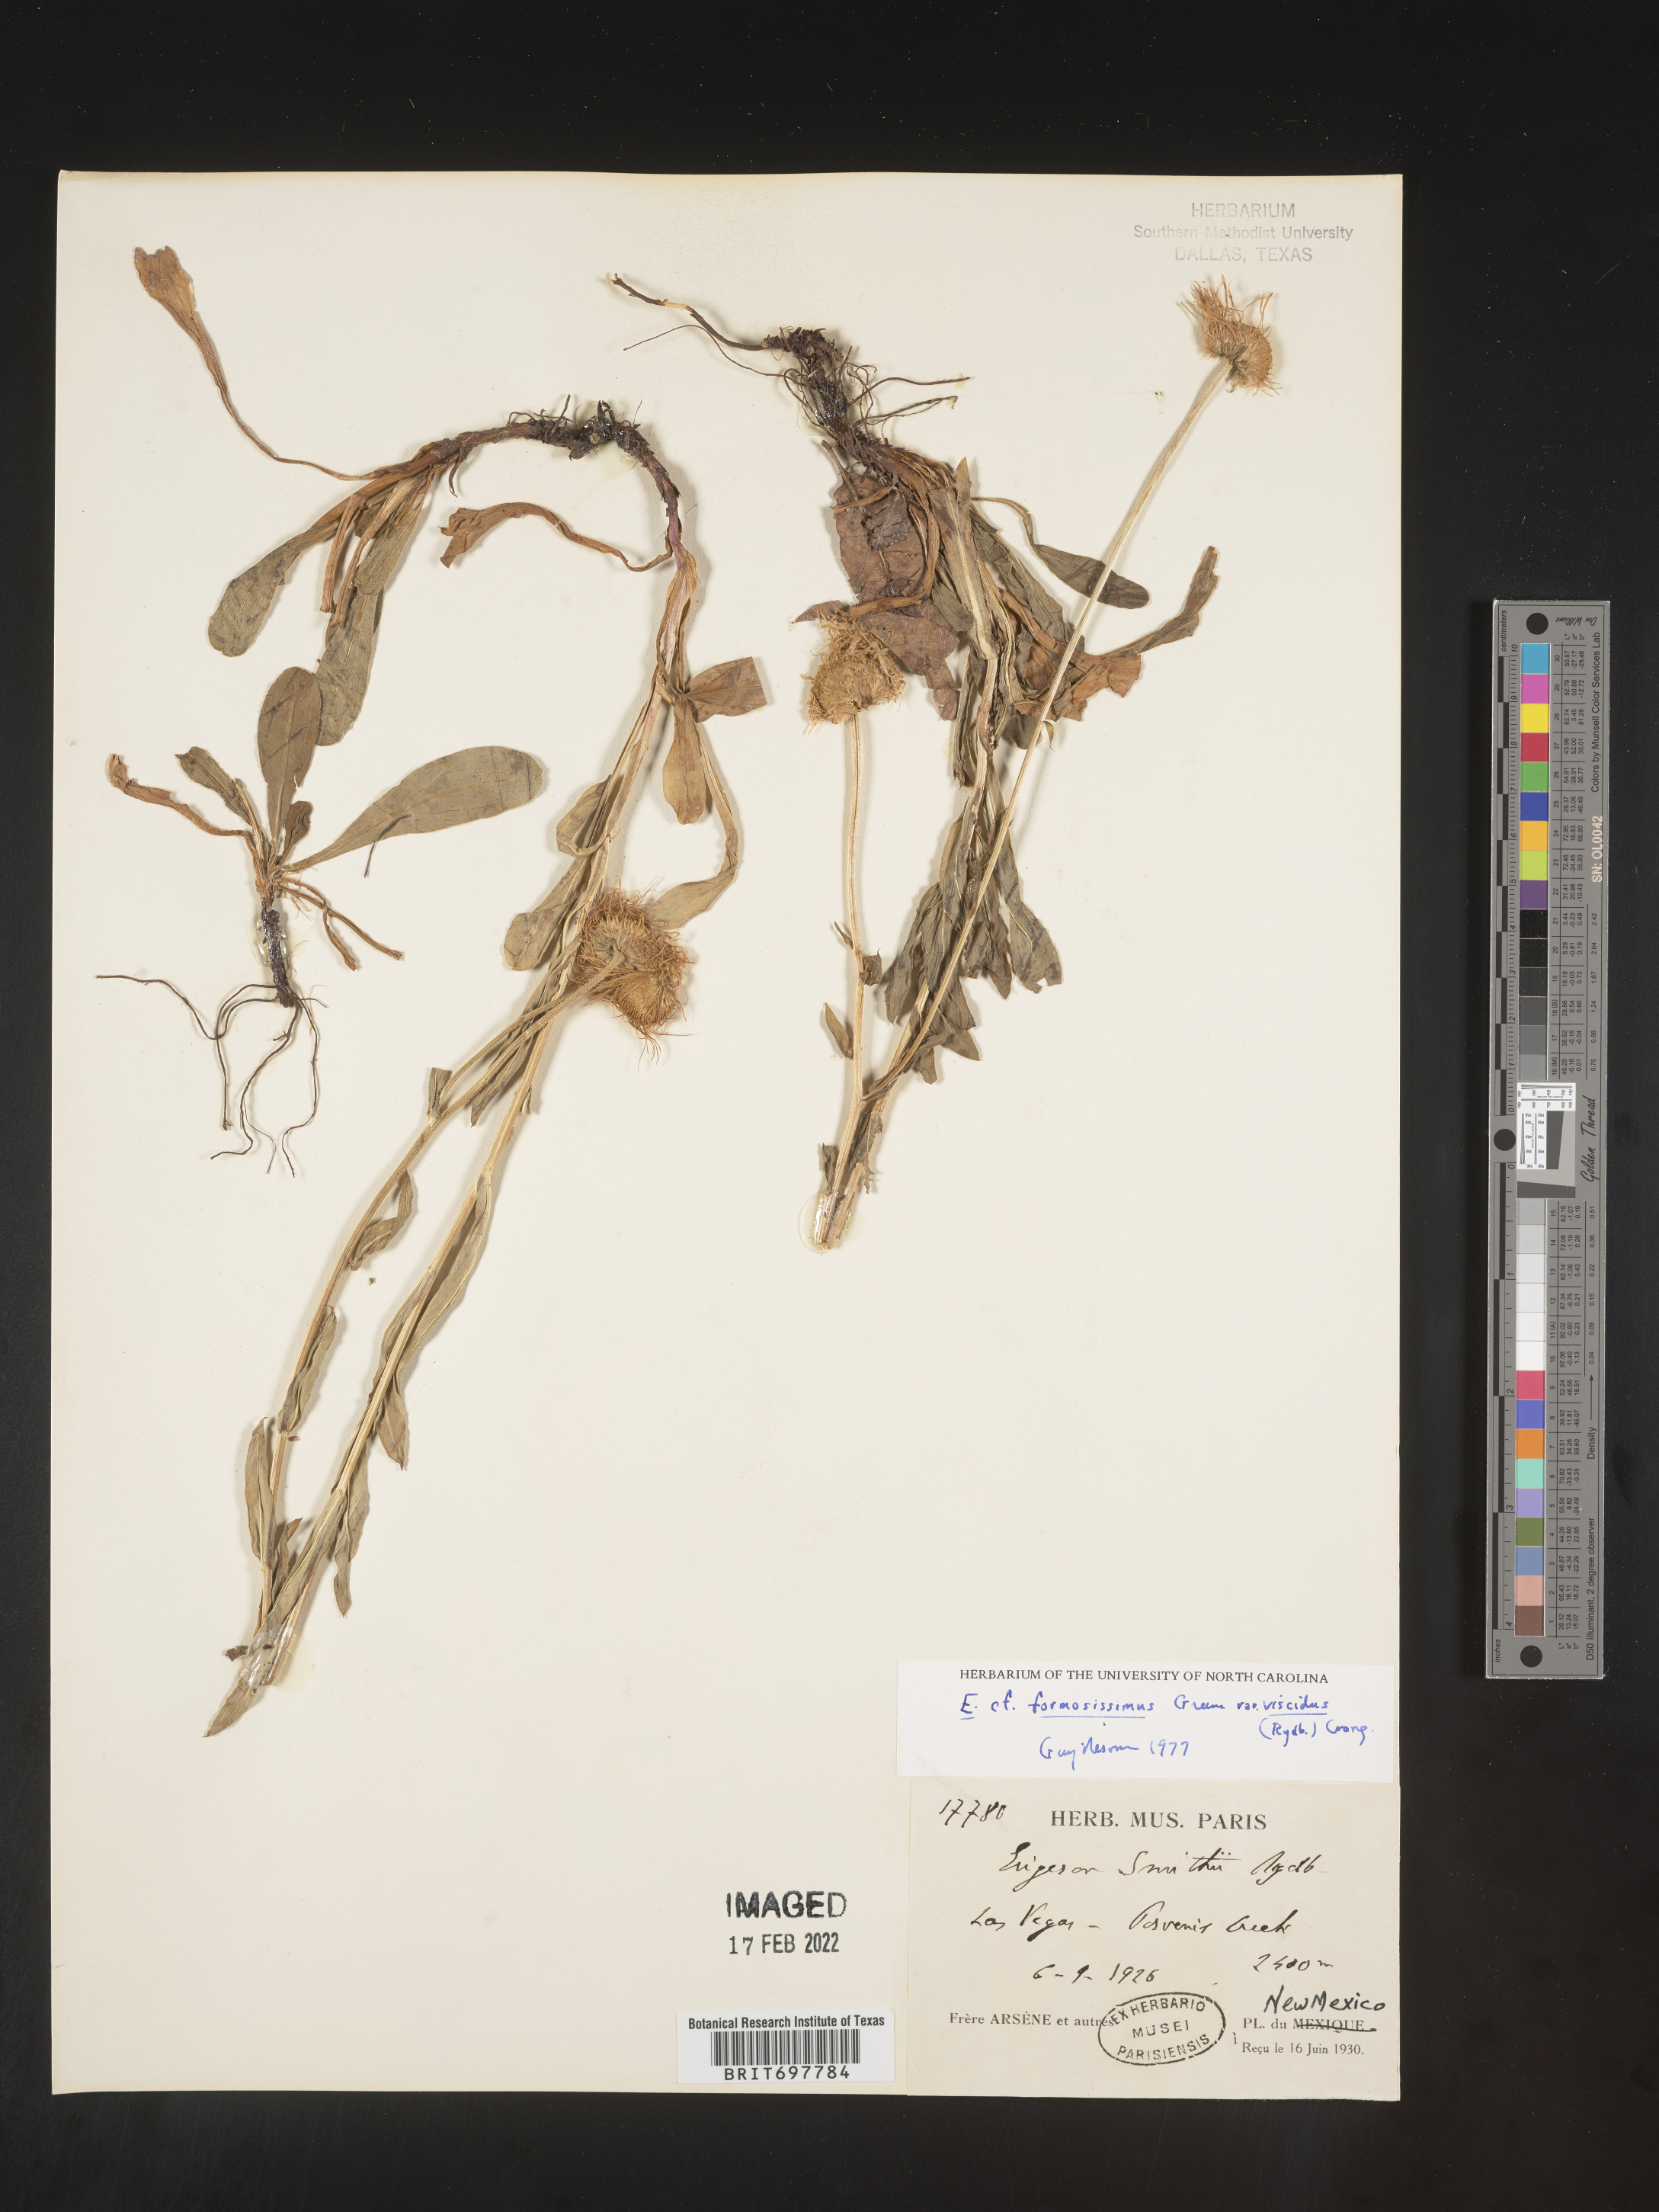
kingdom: Plantae
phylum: Tracheophyta
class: Magnoliopsida
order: Asterales
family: Asteraceae
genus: Erigeron
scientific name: Erigeron formosissimus
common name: Beautiful fleabane
